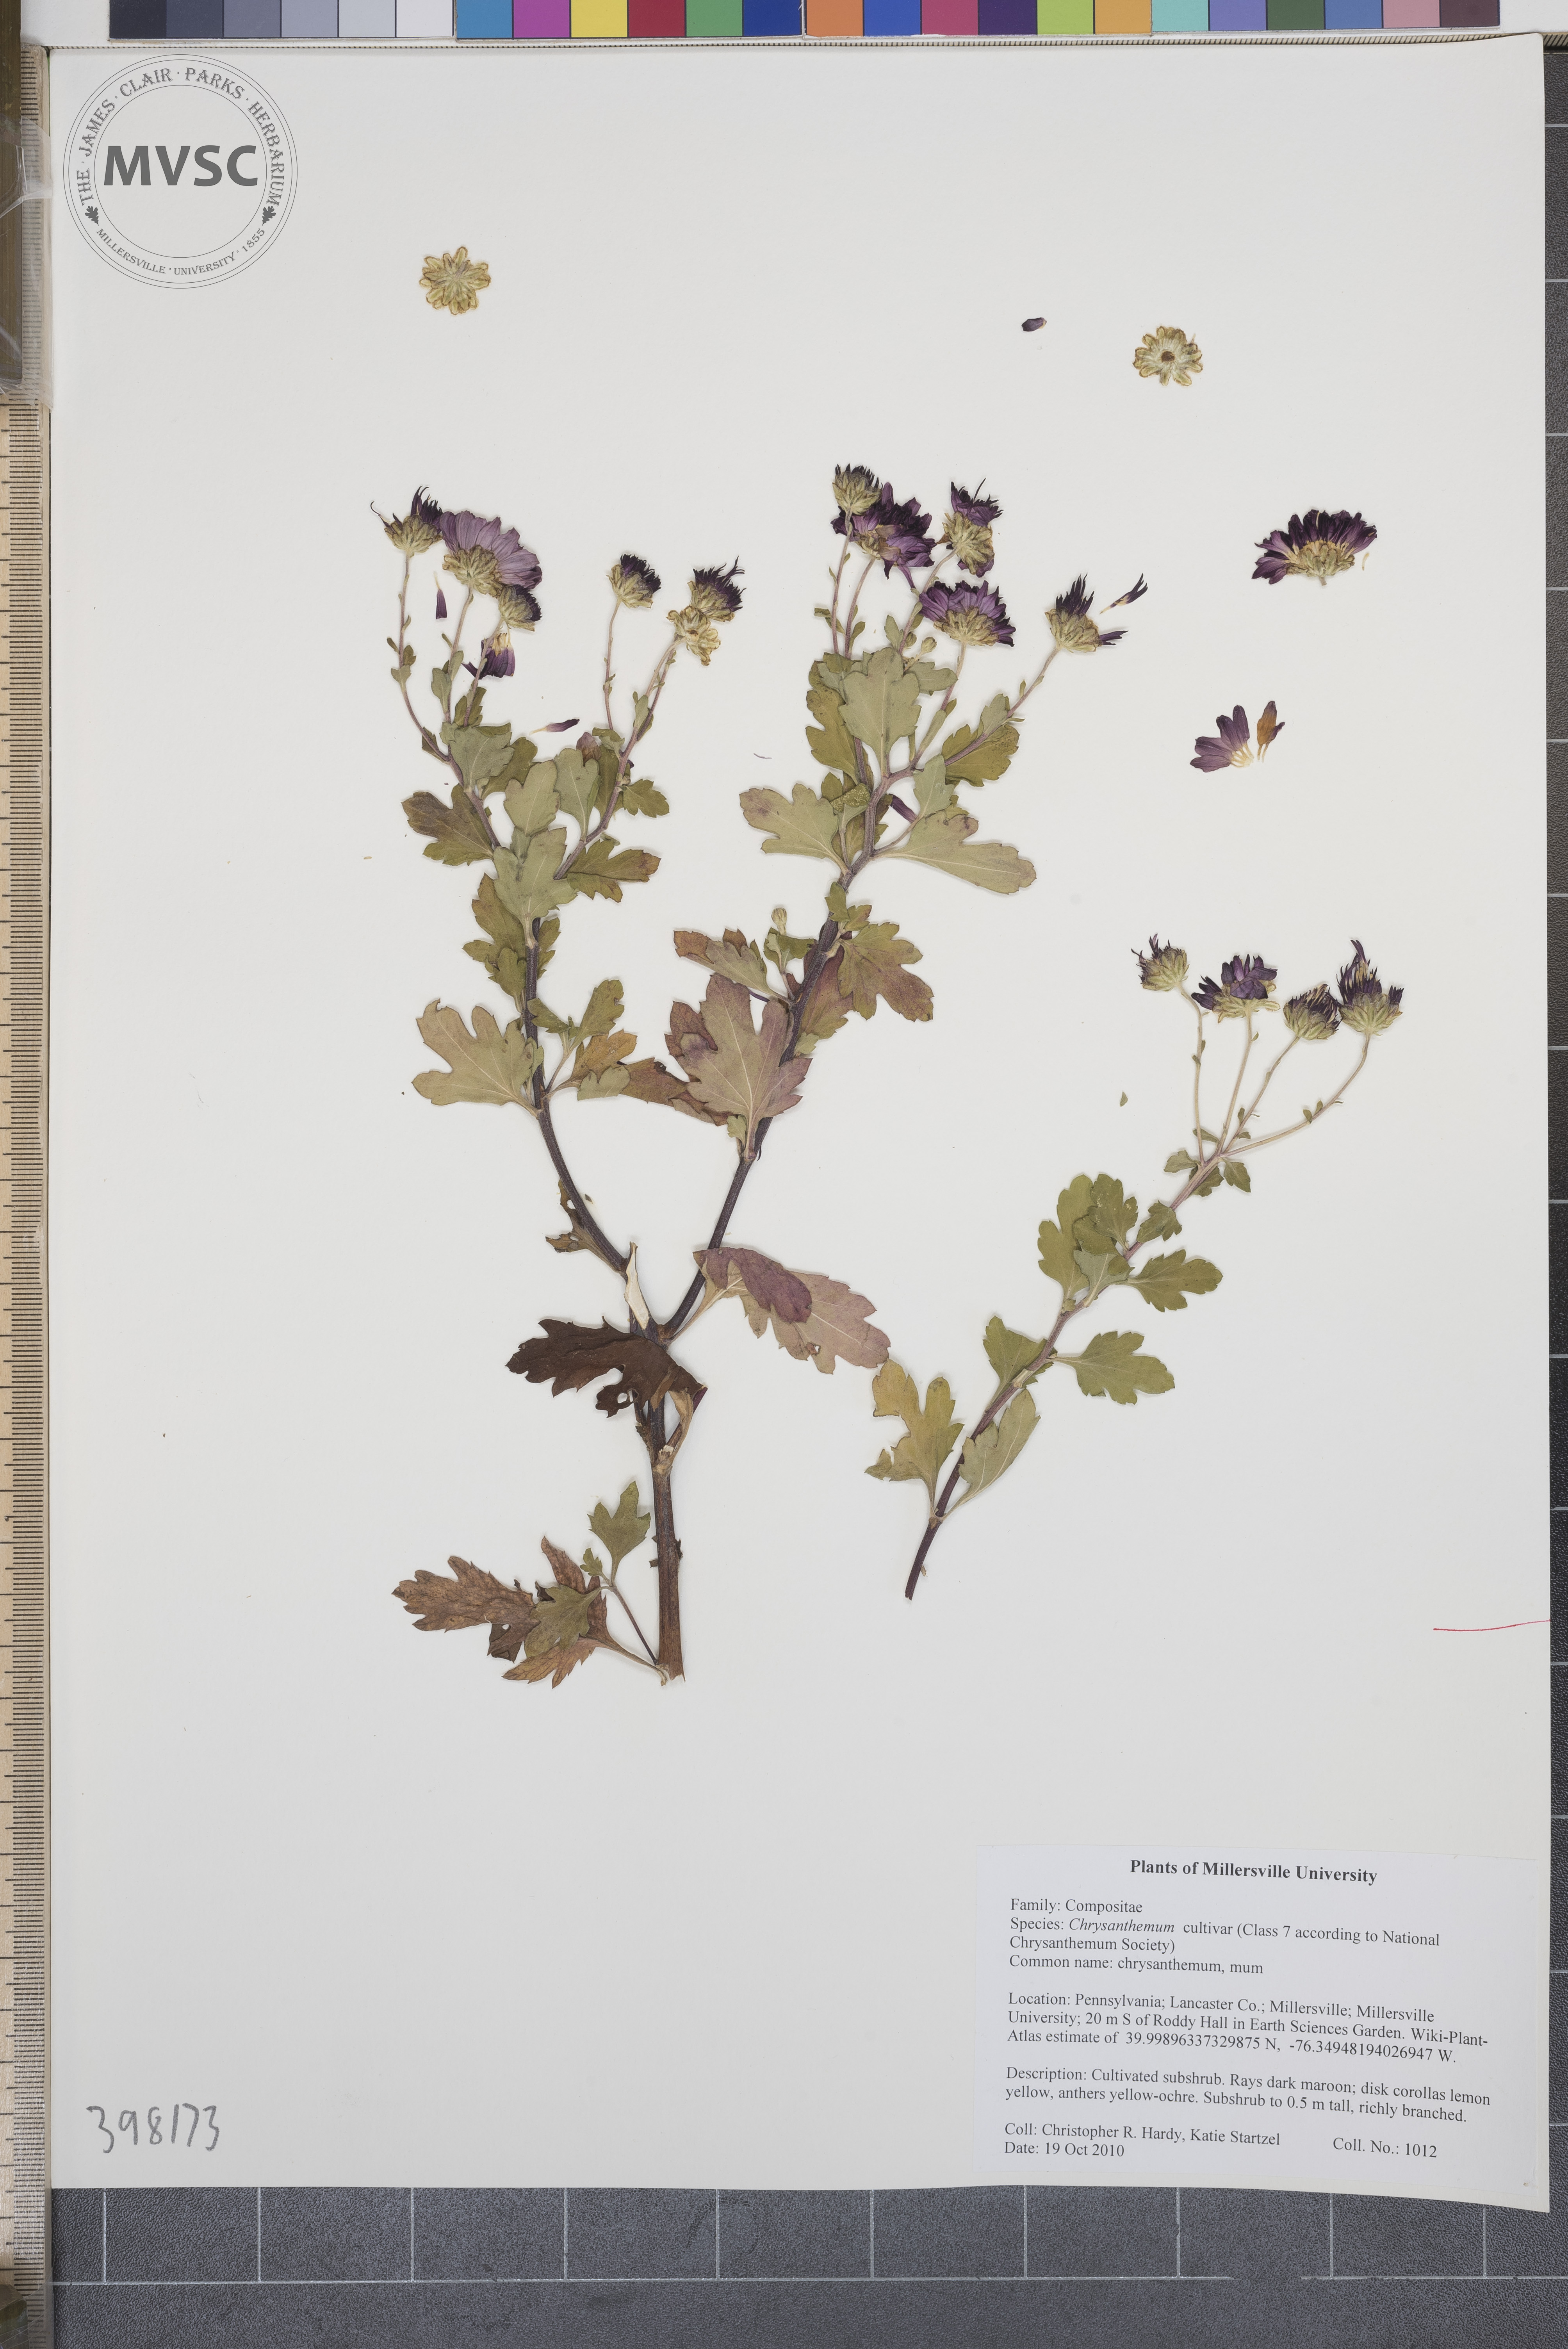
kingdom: Plantae
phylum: Tracheophyta
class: Magnoliopsida
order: Asterales
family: Asteraceae
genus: Chrysanthemum
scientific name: Chrysanthemum
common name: mum
